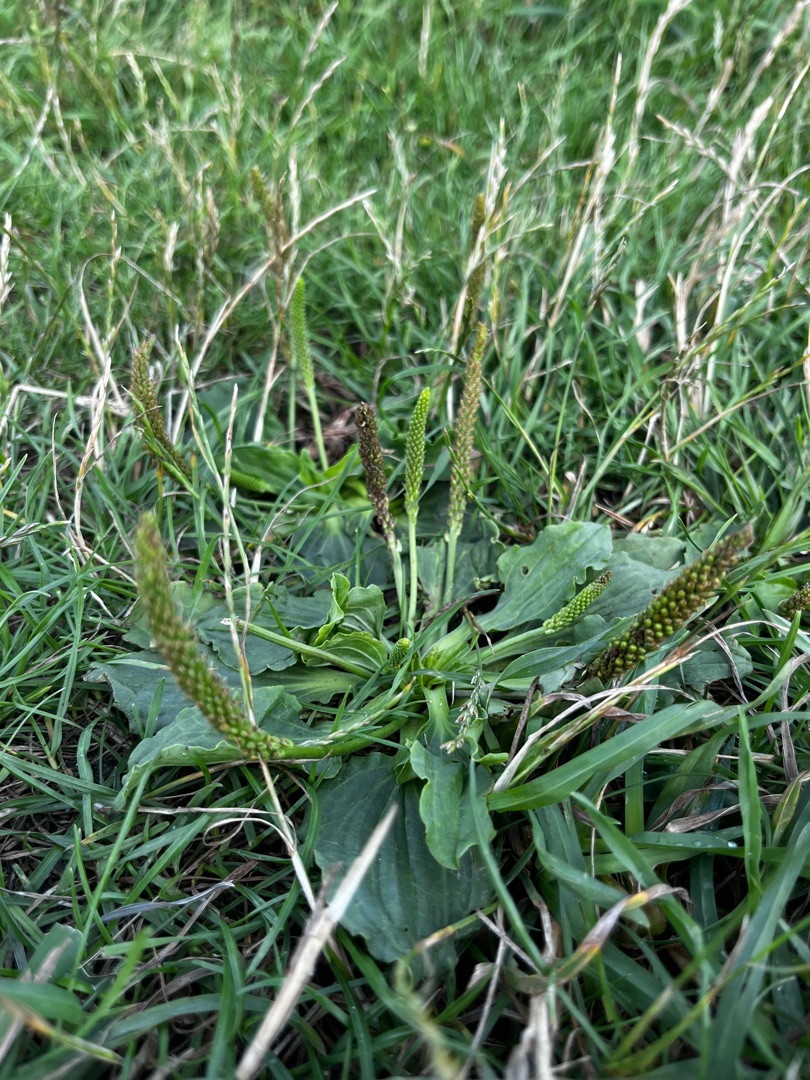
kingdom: Plantae
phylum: Tracheophyta
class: Magnoliopsida
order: Lamiales
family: Plantaginaceae
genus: Plantago
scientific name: Plantago major
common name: Glat vejbred
